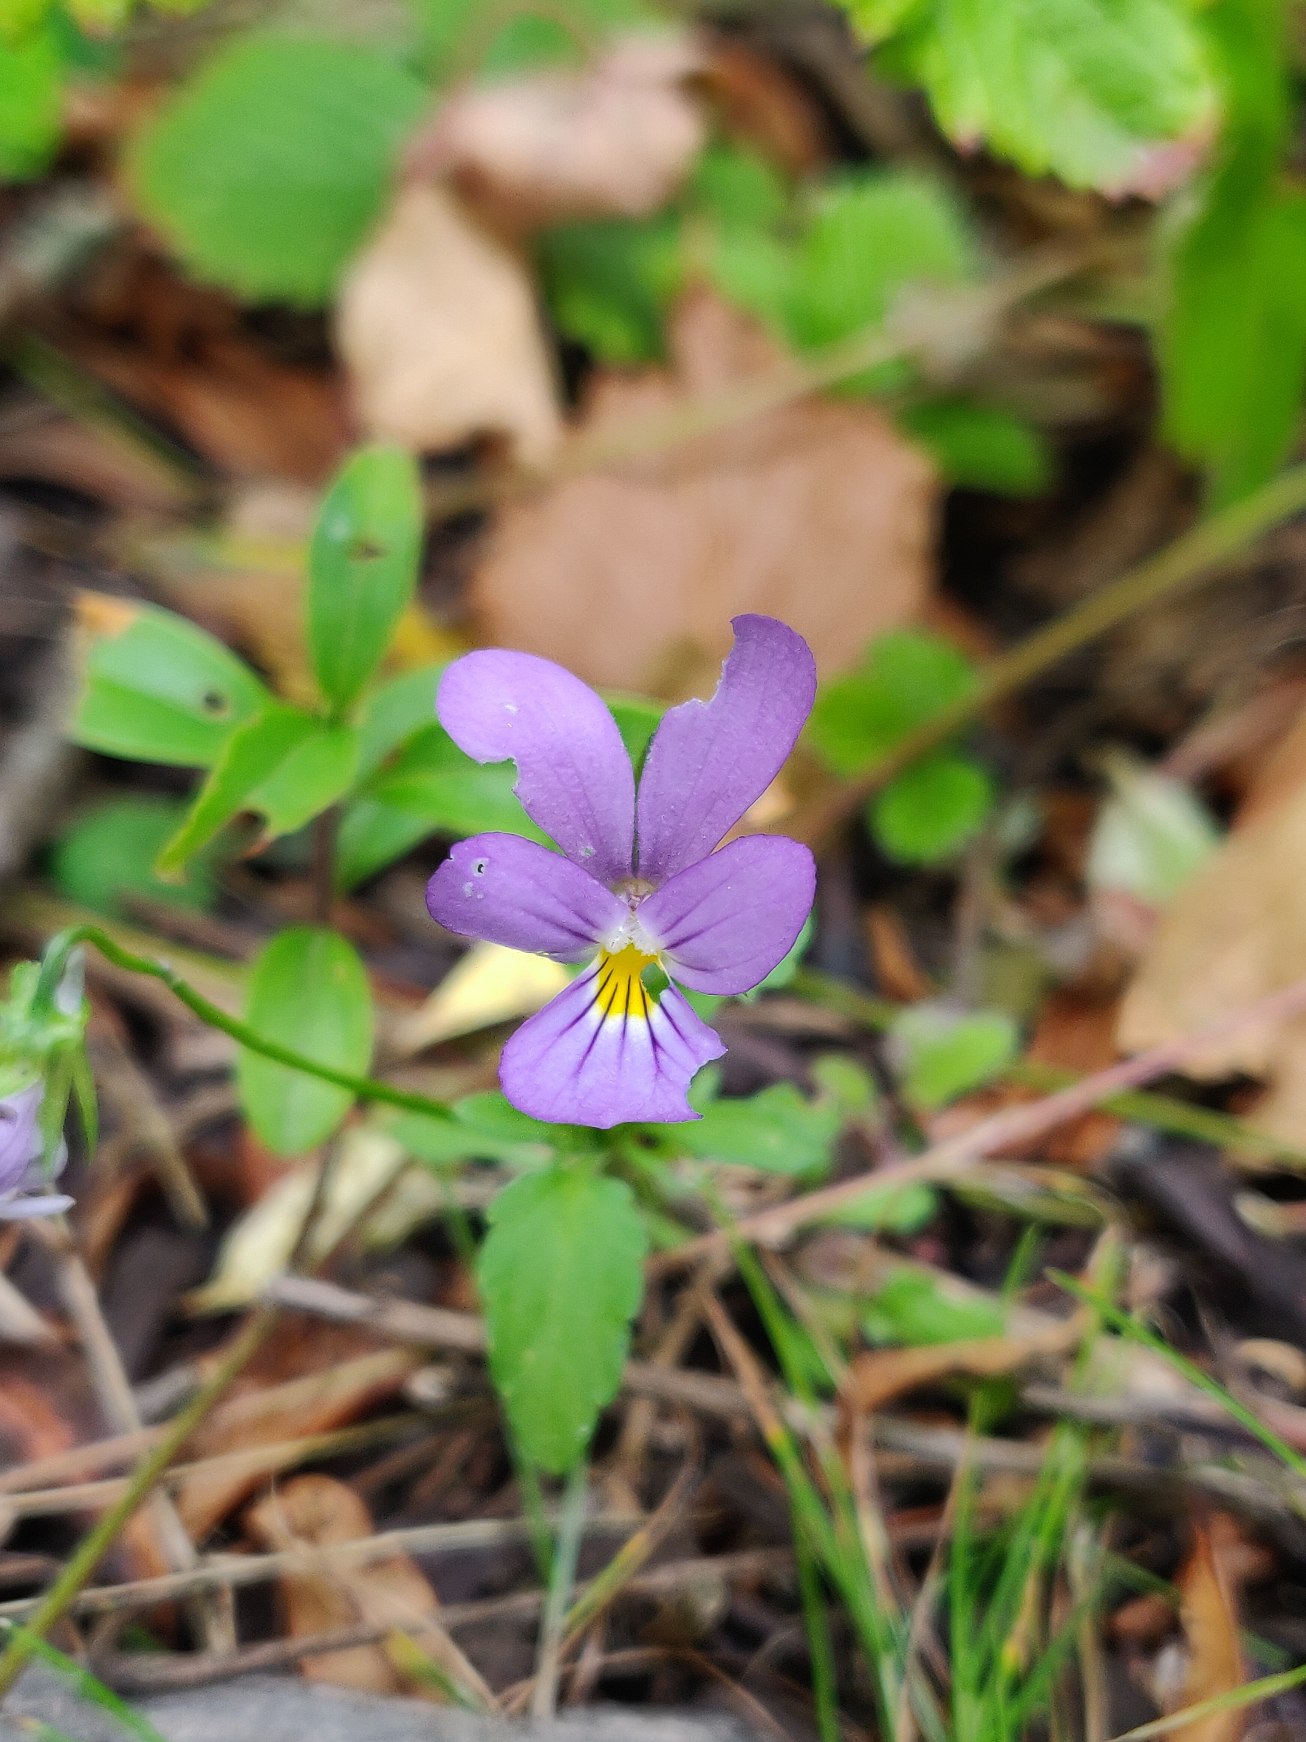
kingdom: Plantae
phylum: Tracheophyta
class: Magnoliopsida
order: Malpighiales
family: Violaceae
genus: Viola
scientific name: Viola tricolor
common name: Stedmoderblomst
